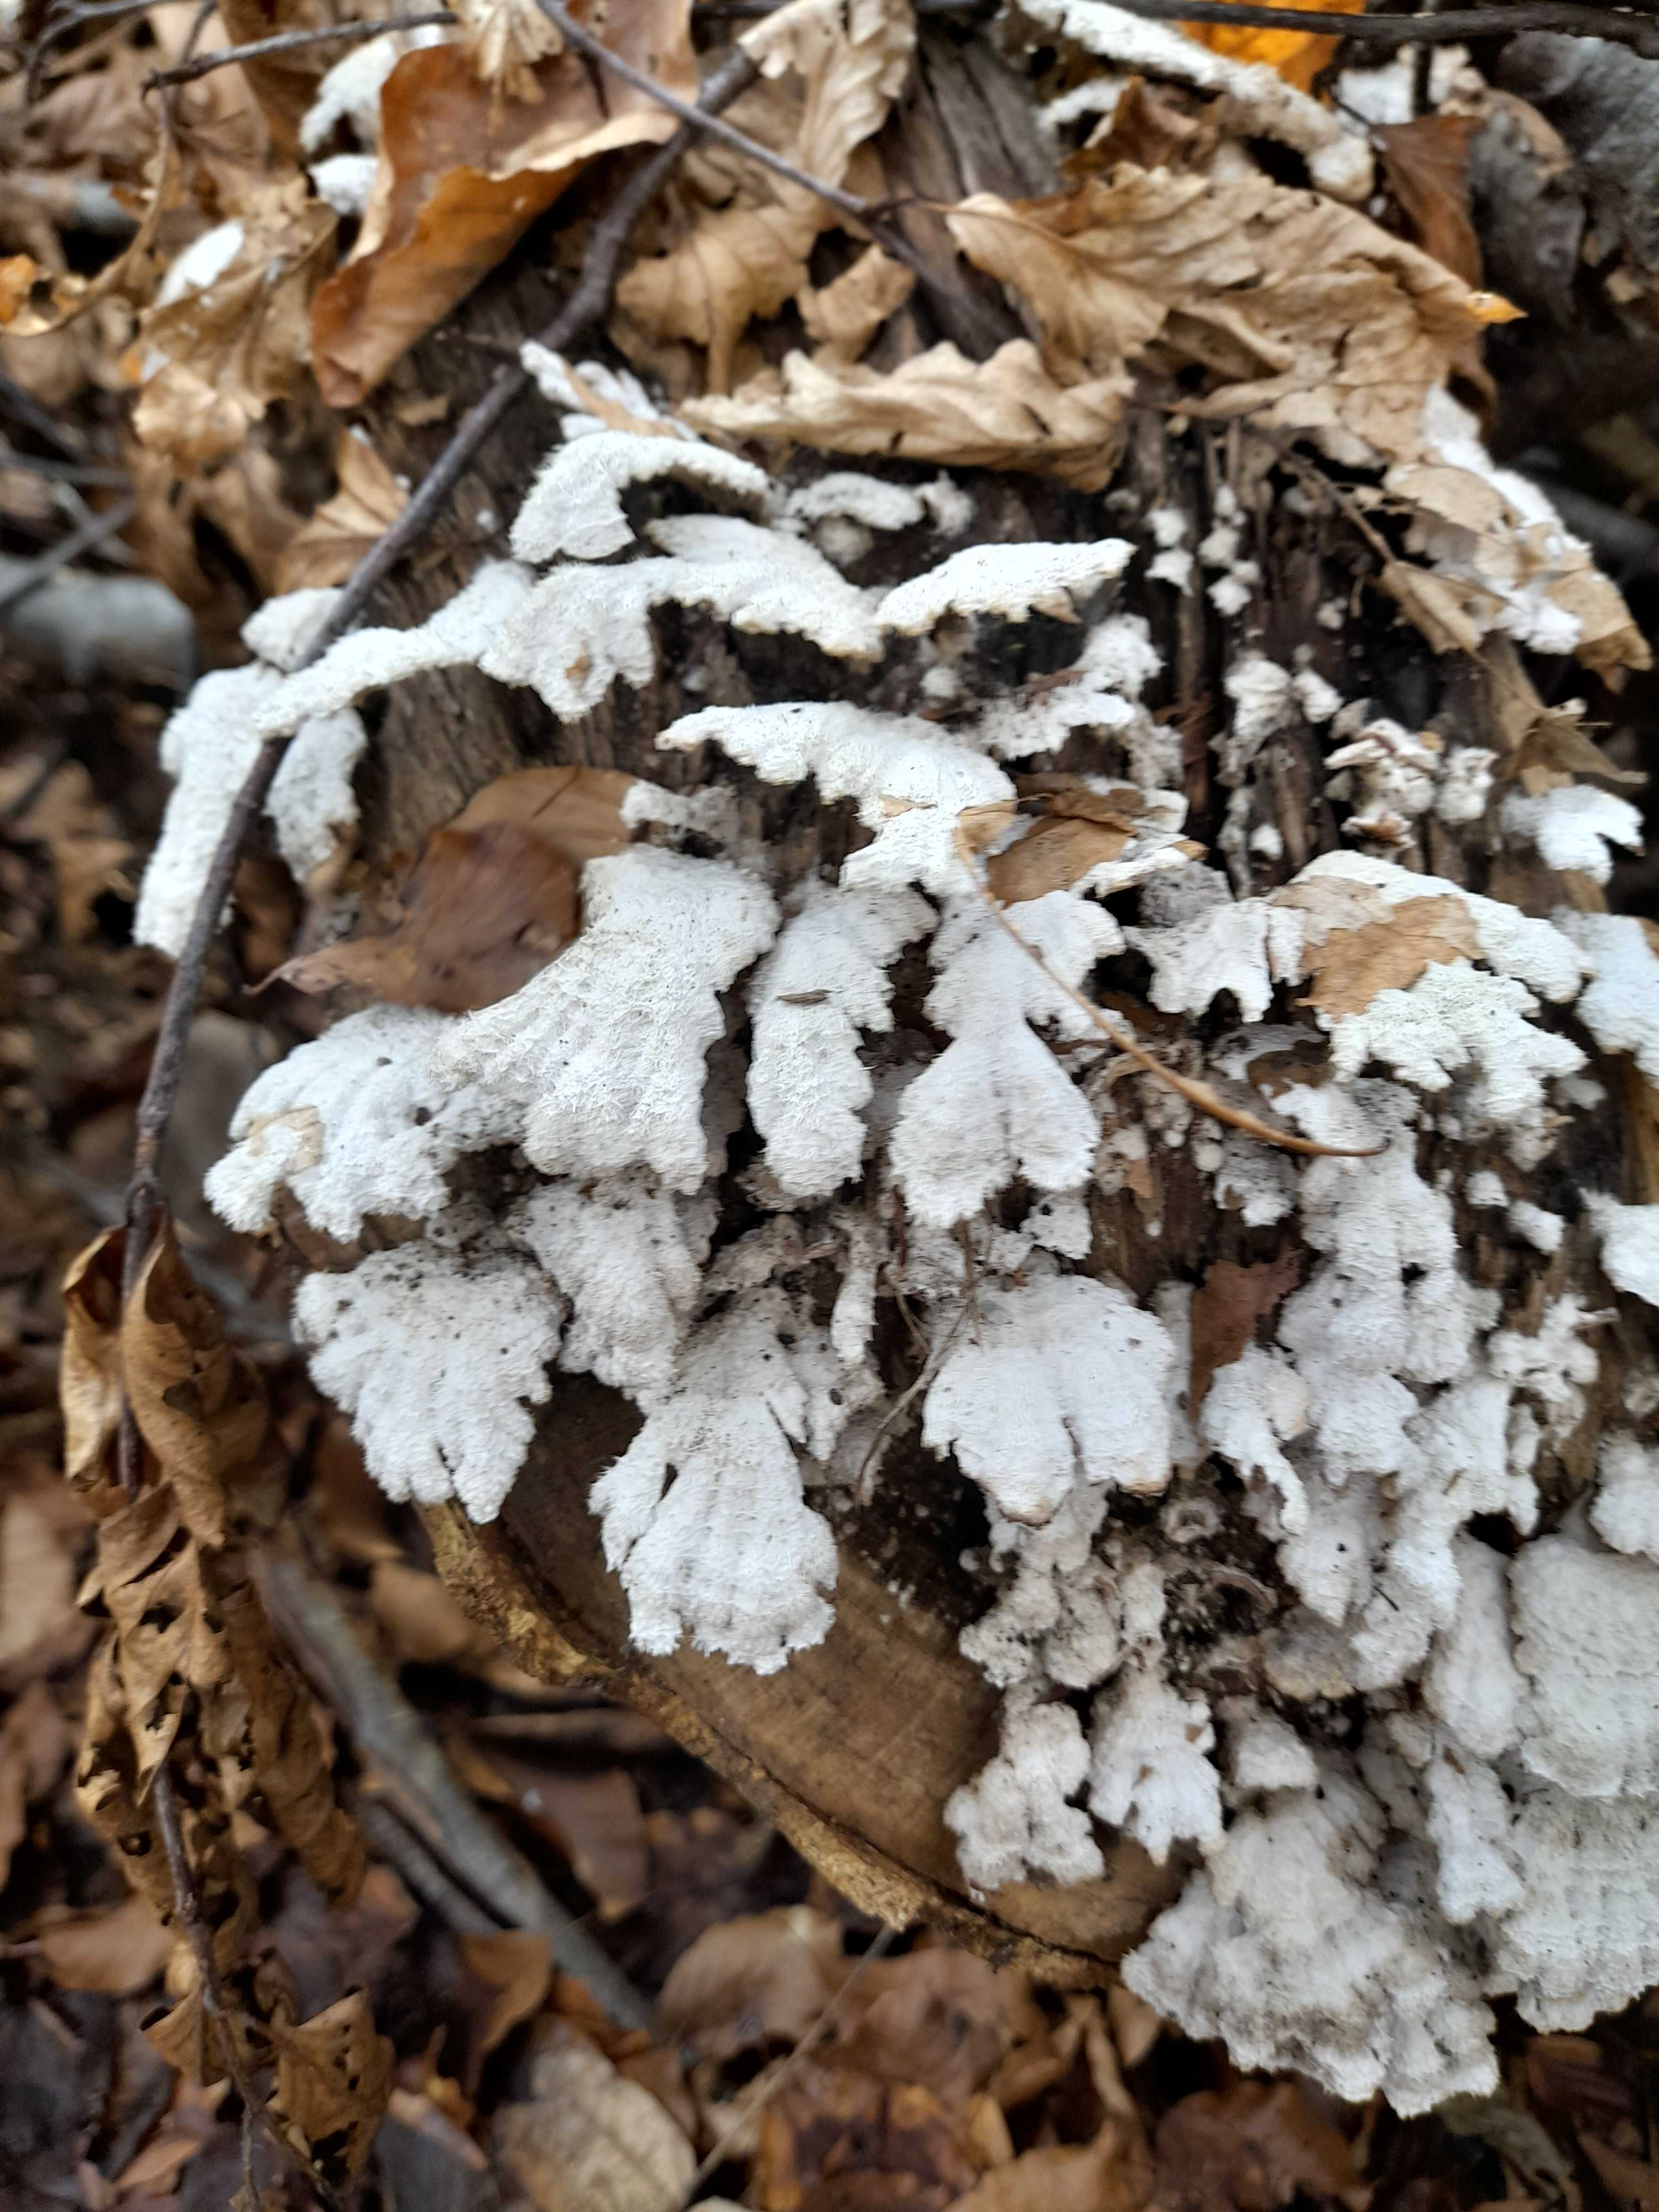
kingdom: Fungi
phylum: Basidiomycota
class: Agaricomycetes
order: Agaricales
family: Schizophyllaceae
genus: Schizophyllum
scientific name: Schizophyllum commune
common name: kløvblad
